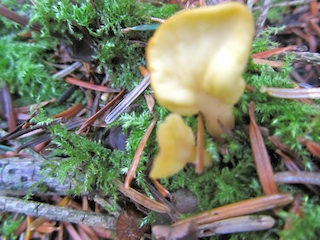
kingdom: Fungi
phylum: Ascomycota
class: Leotiomycetes
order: Rhytismatales
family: Cudoniaceae
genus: Spathularia
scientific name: Spathularia flavida
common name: gul spatelsvamp
